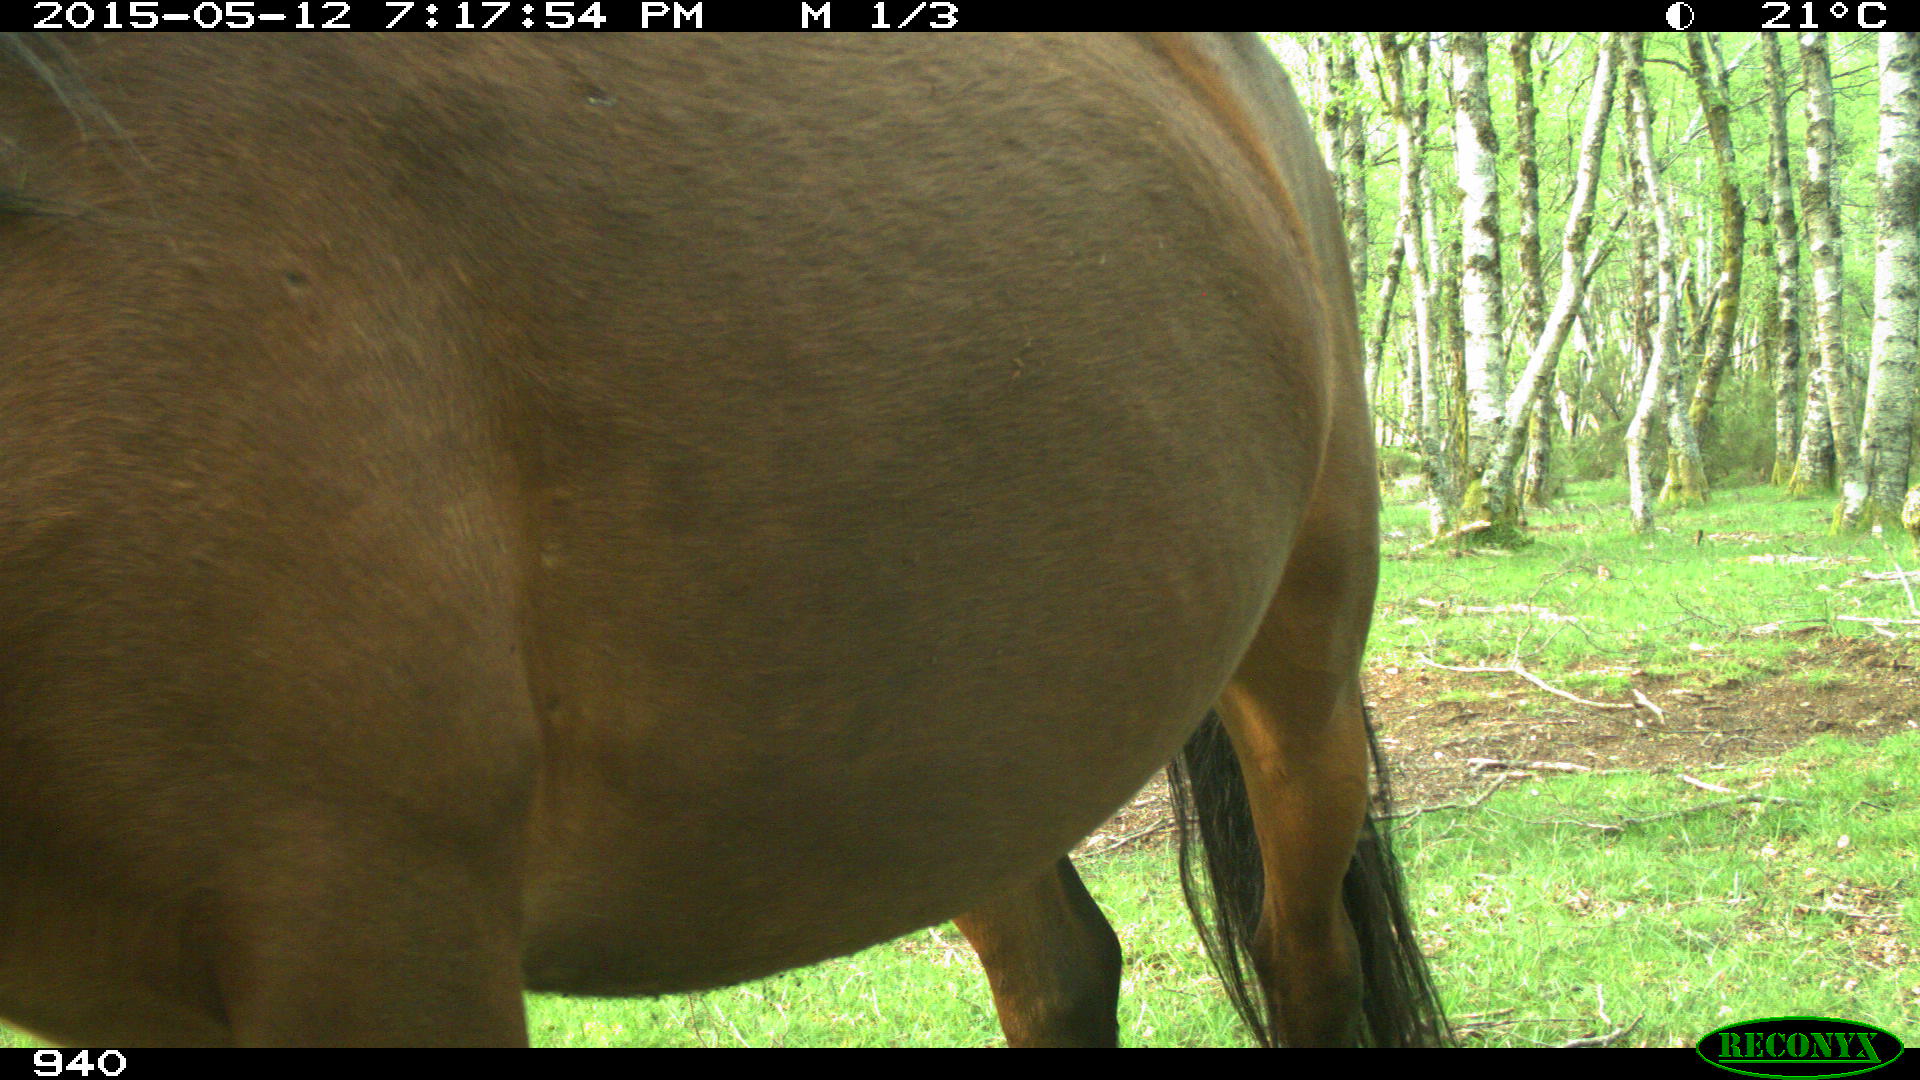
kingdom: Animalia
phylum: Chordata
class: Mammalia
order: Perissodactyla
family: Equidae
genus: Equus
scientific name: Equus caballus
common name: Horse
